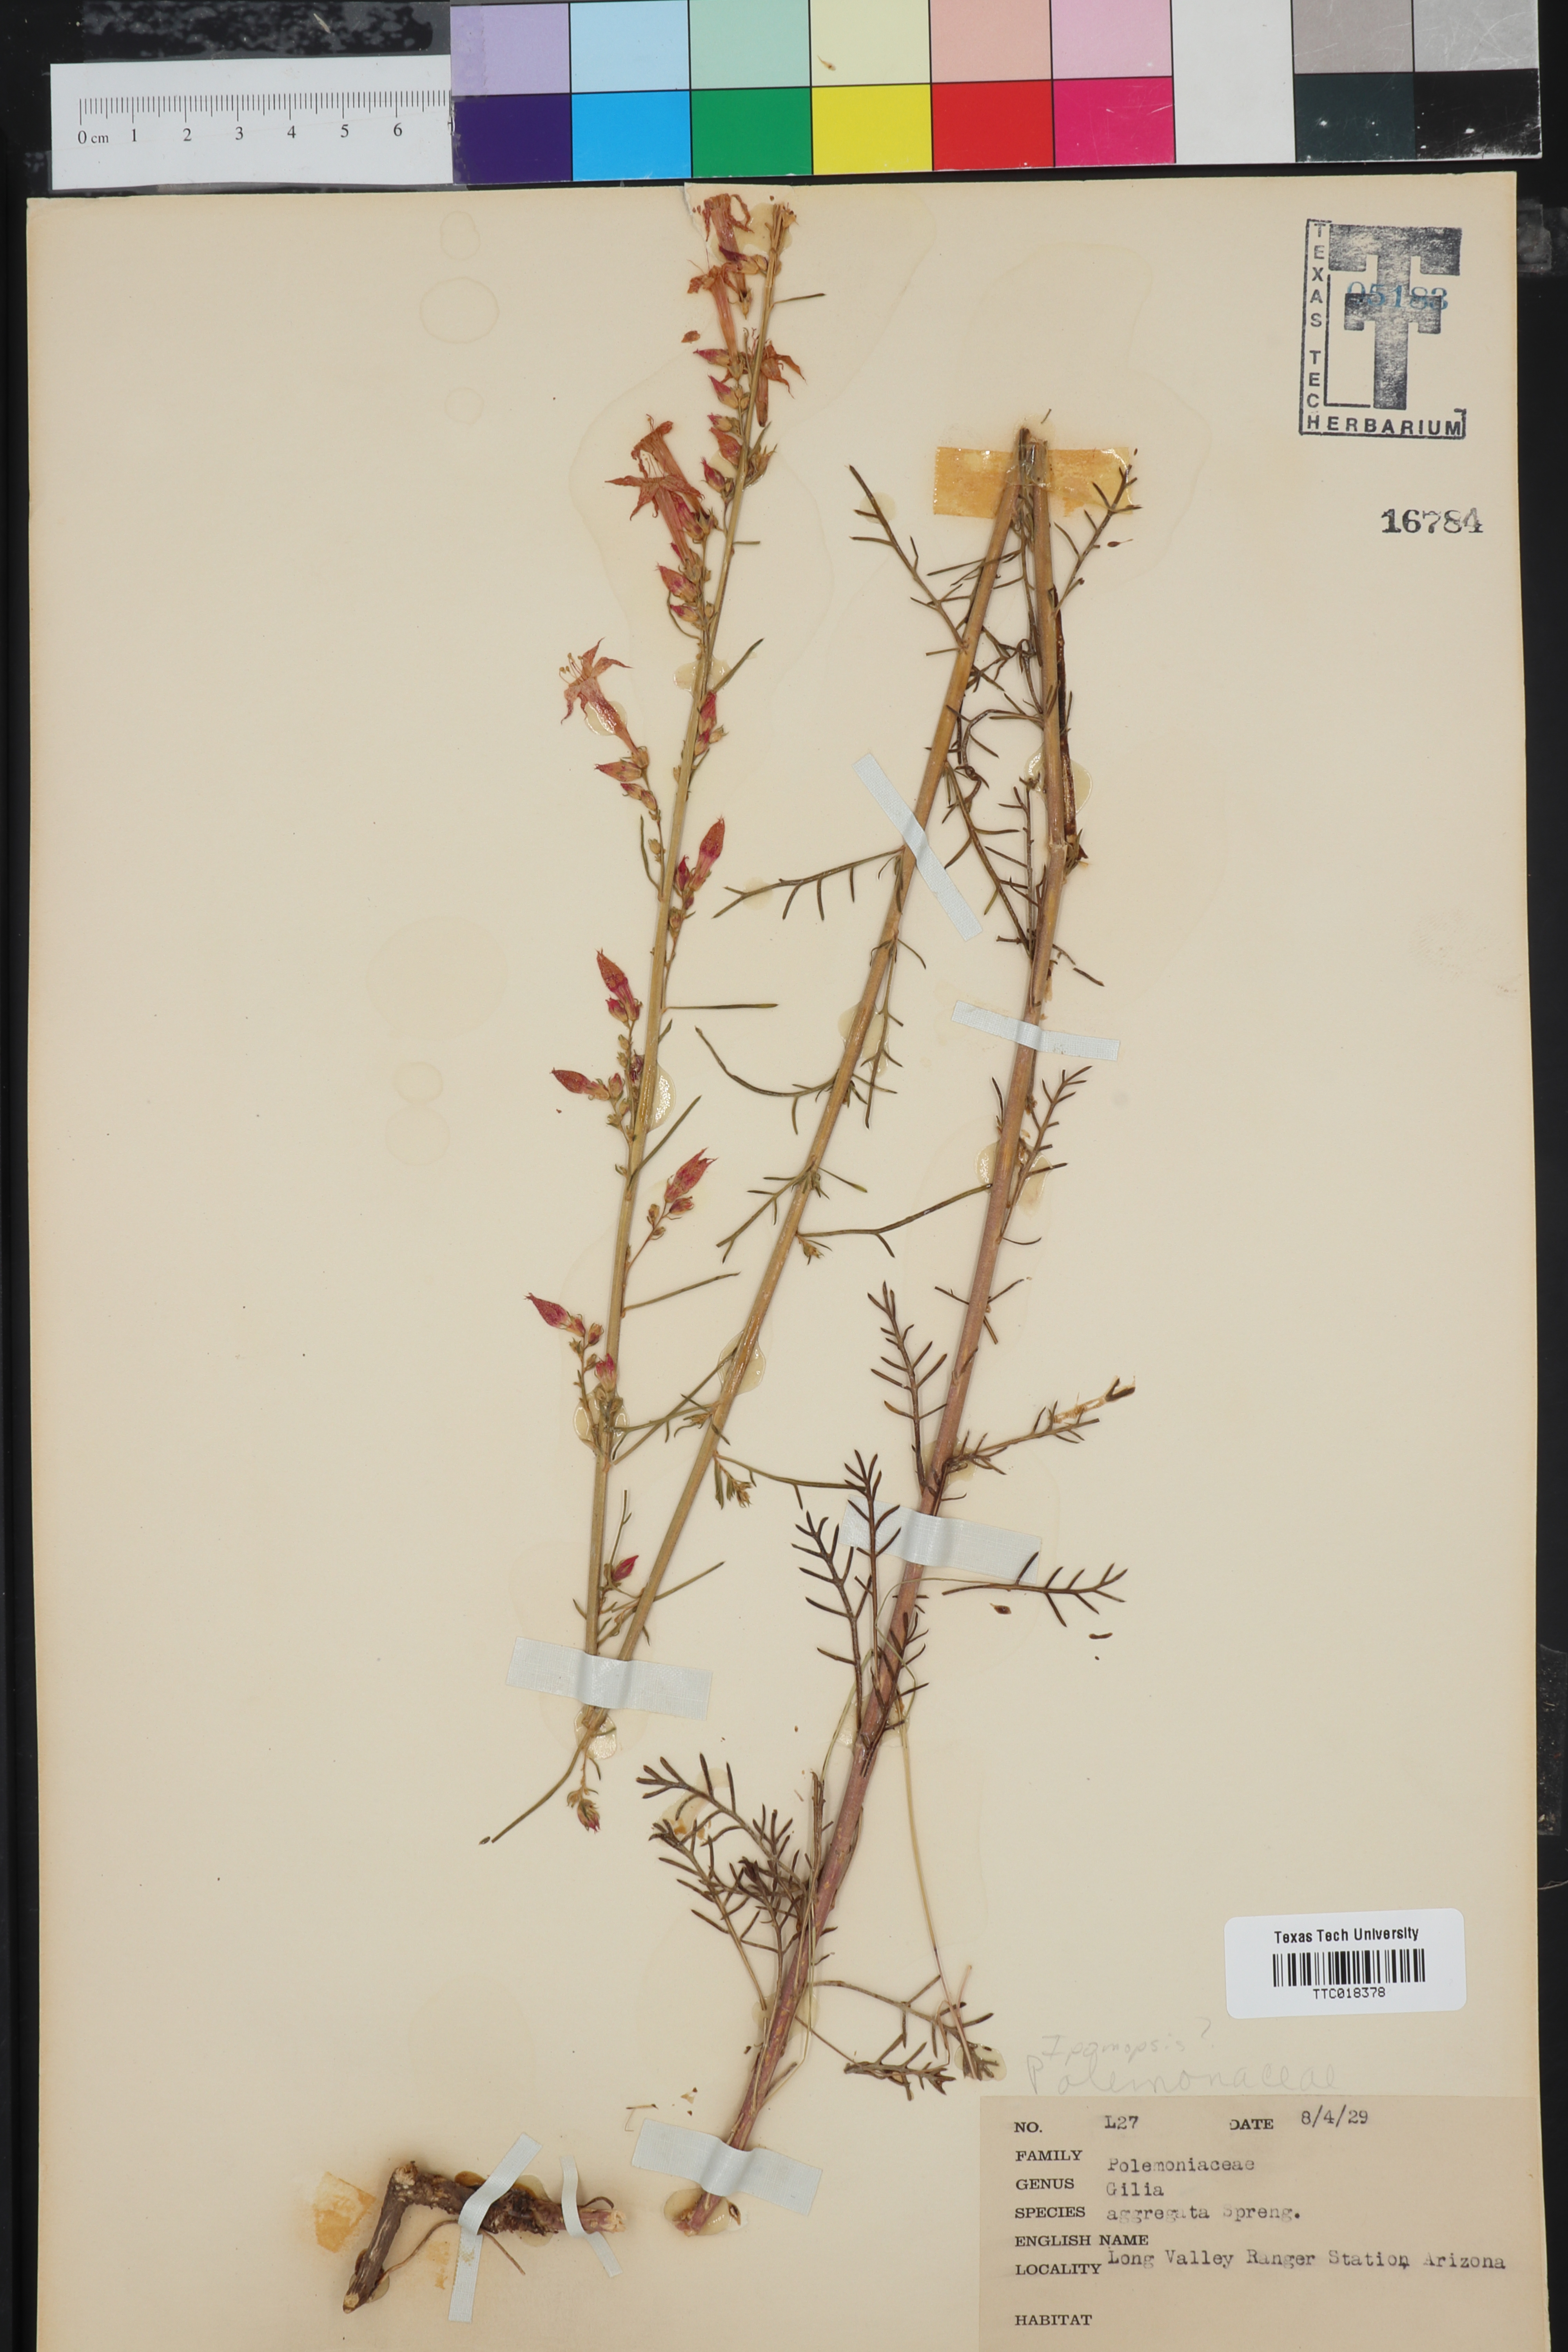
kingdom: Plantae
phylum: Tracheophyta
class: Magnoliopsida
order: Ericales
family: Polemoniaceae
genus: Ipomopsis
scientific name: Ipomopsis
